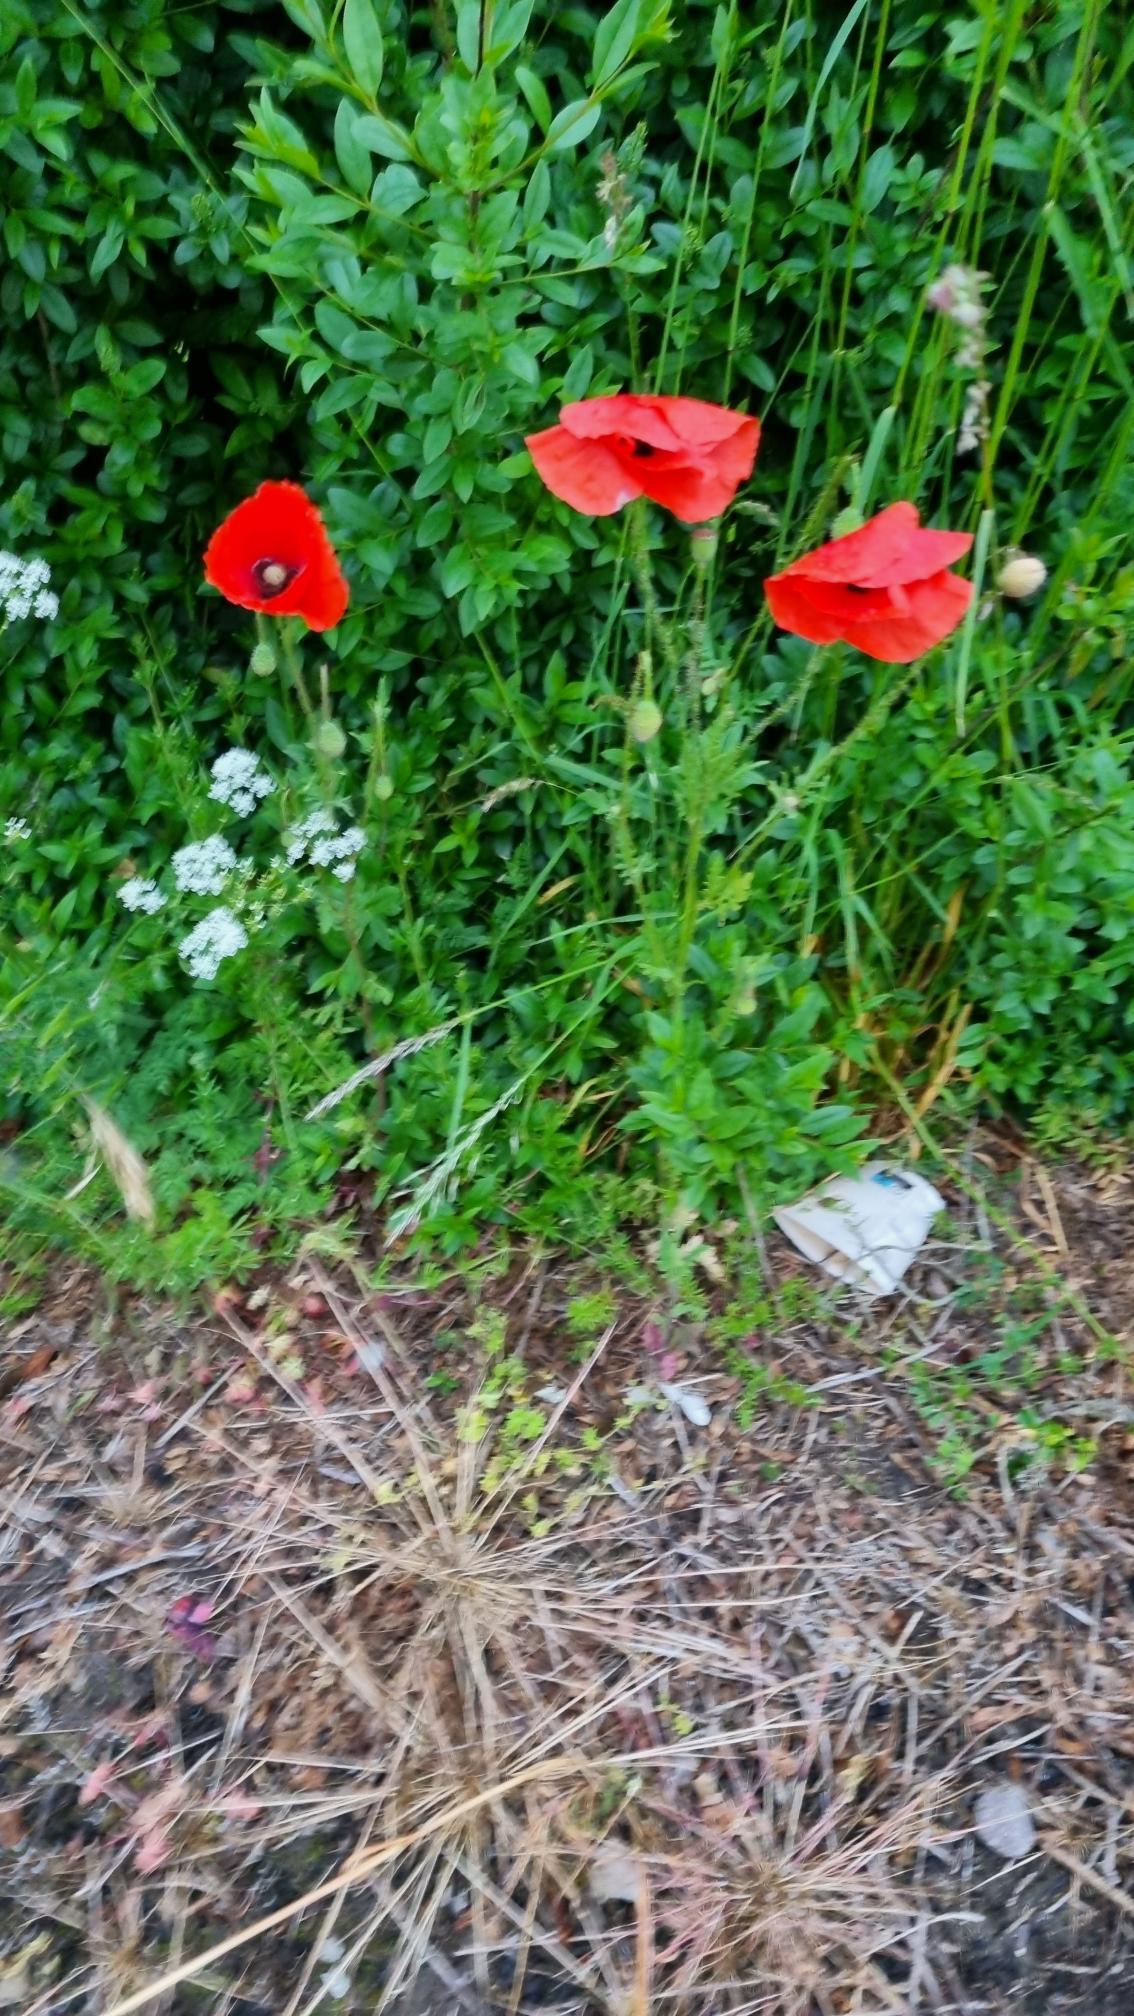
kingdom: Plantae
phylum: Tracheophyta
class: Magnoliopsida
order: Ranunculales
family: Papaveraceae
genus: Papaver
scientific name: Papaver rhoeas
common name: Korn-valmue
